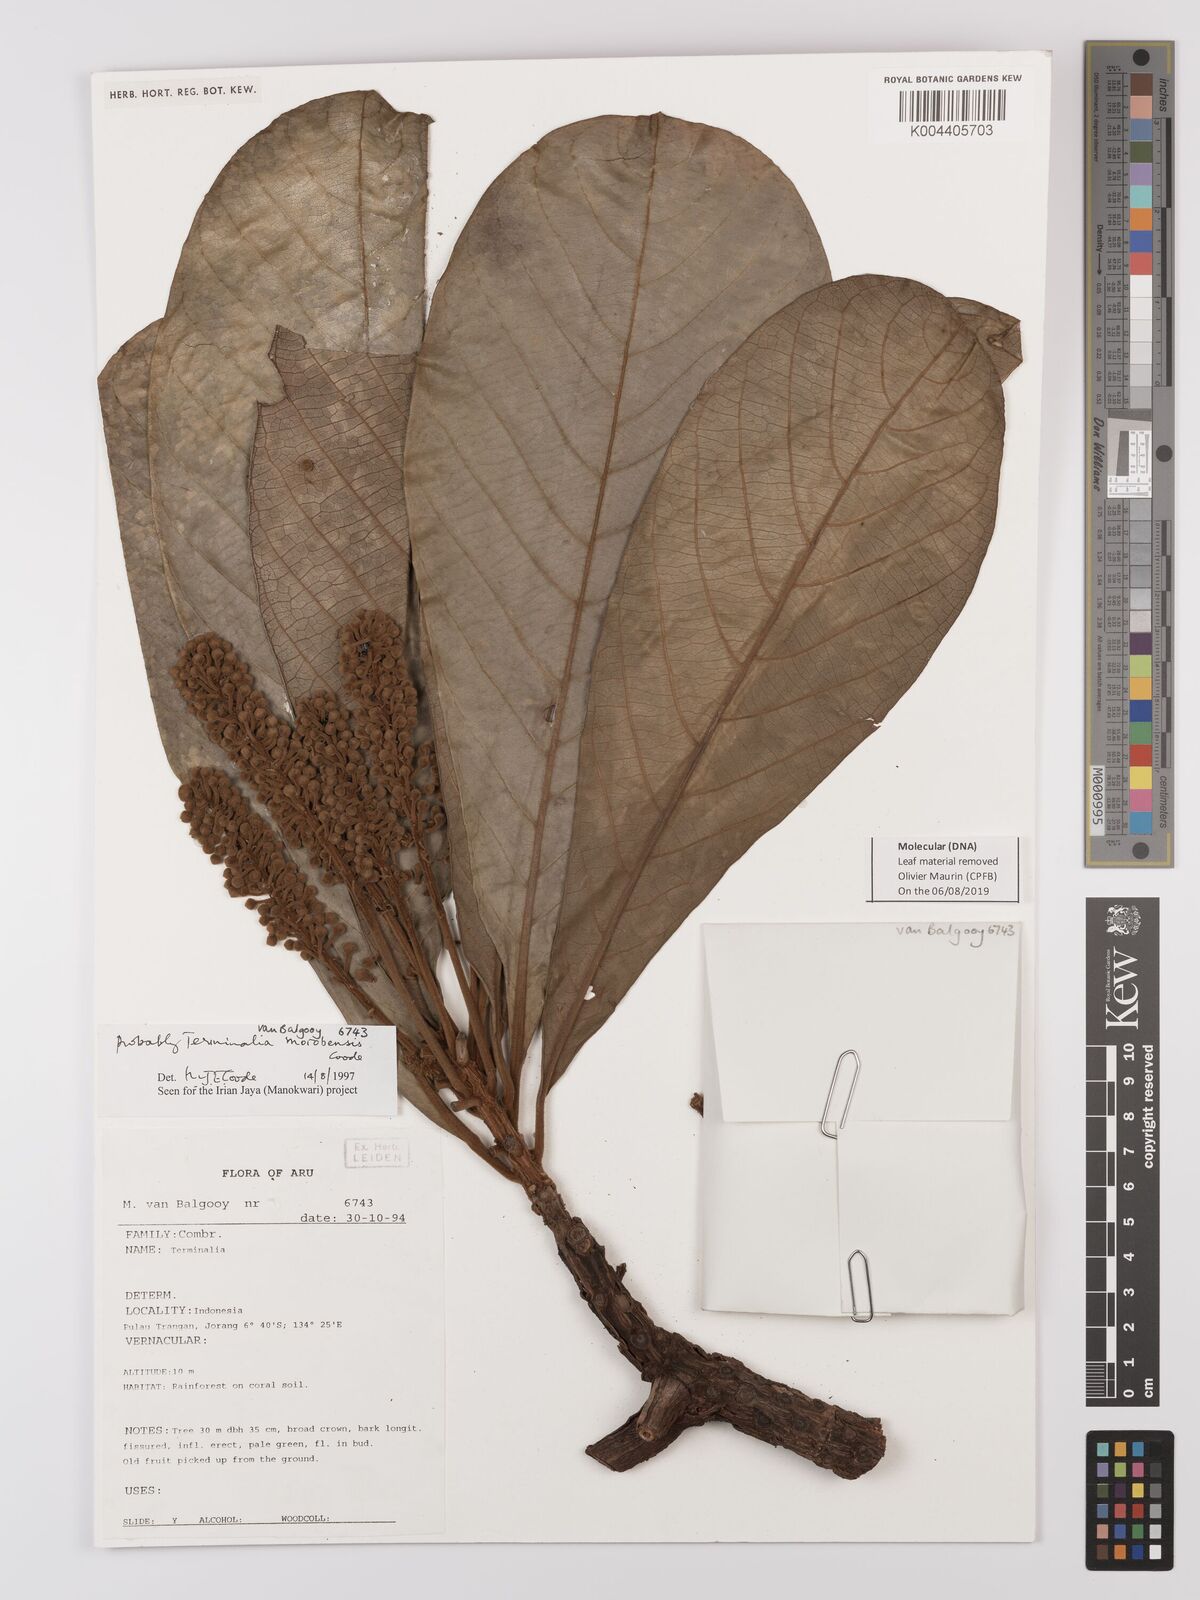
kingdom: Plantae
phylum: Tracheophyta
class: Magnoliopsida
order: Myrtales
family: Combretaceae
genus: Terminalia
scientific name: Terminalia morobensis
